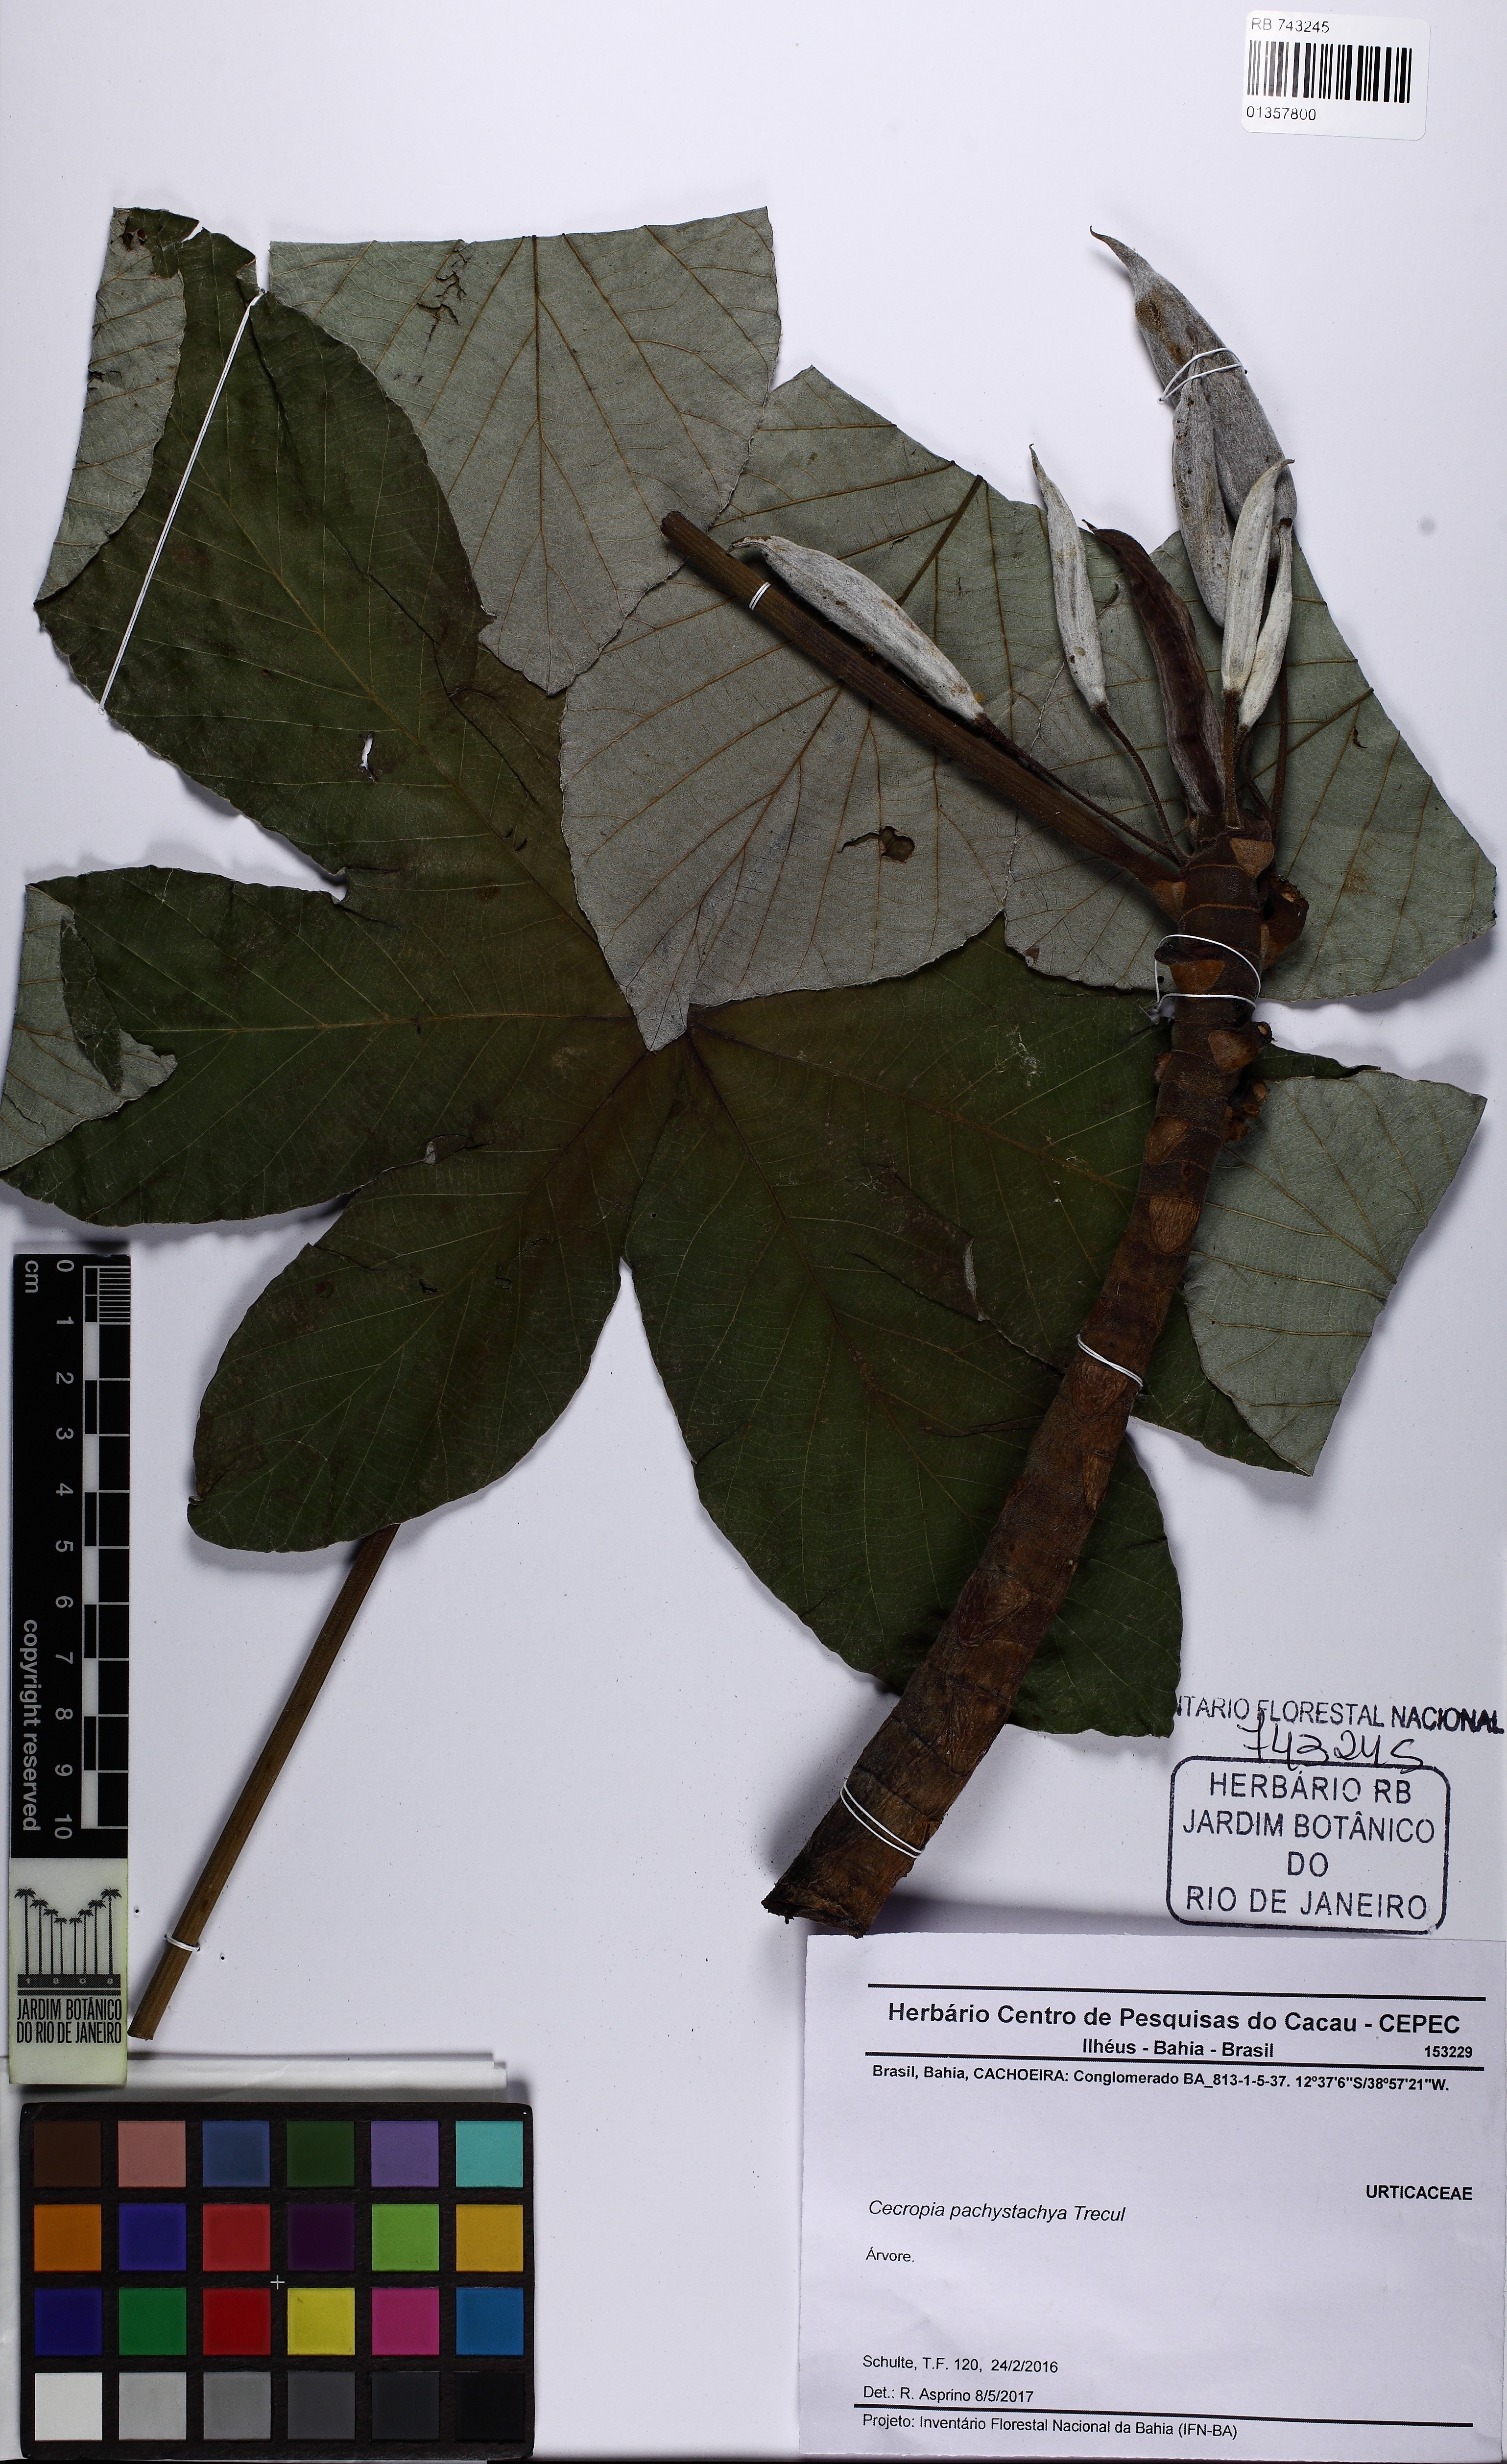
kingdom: Plantae
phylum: Tracheophyta
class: Magnoliopsida
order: Rosales
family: Urticaceae
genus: Cecropia
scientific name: Cecropia pachystachya
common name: Ambay pumpwood
